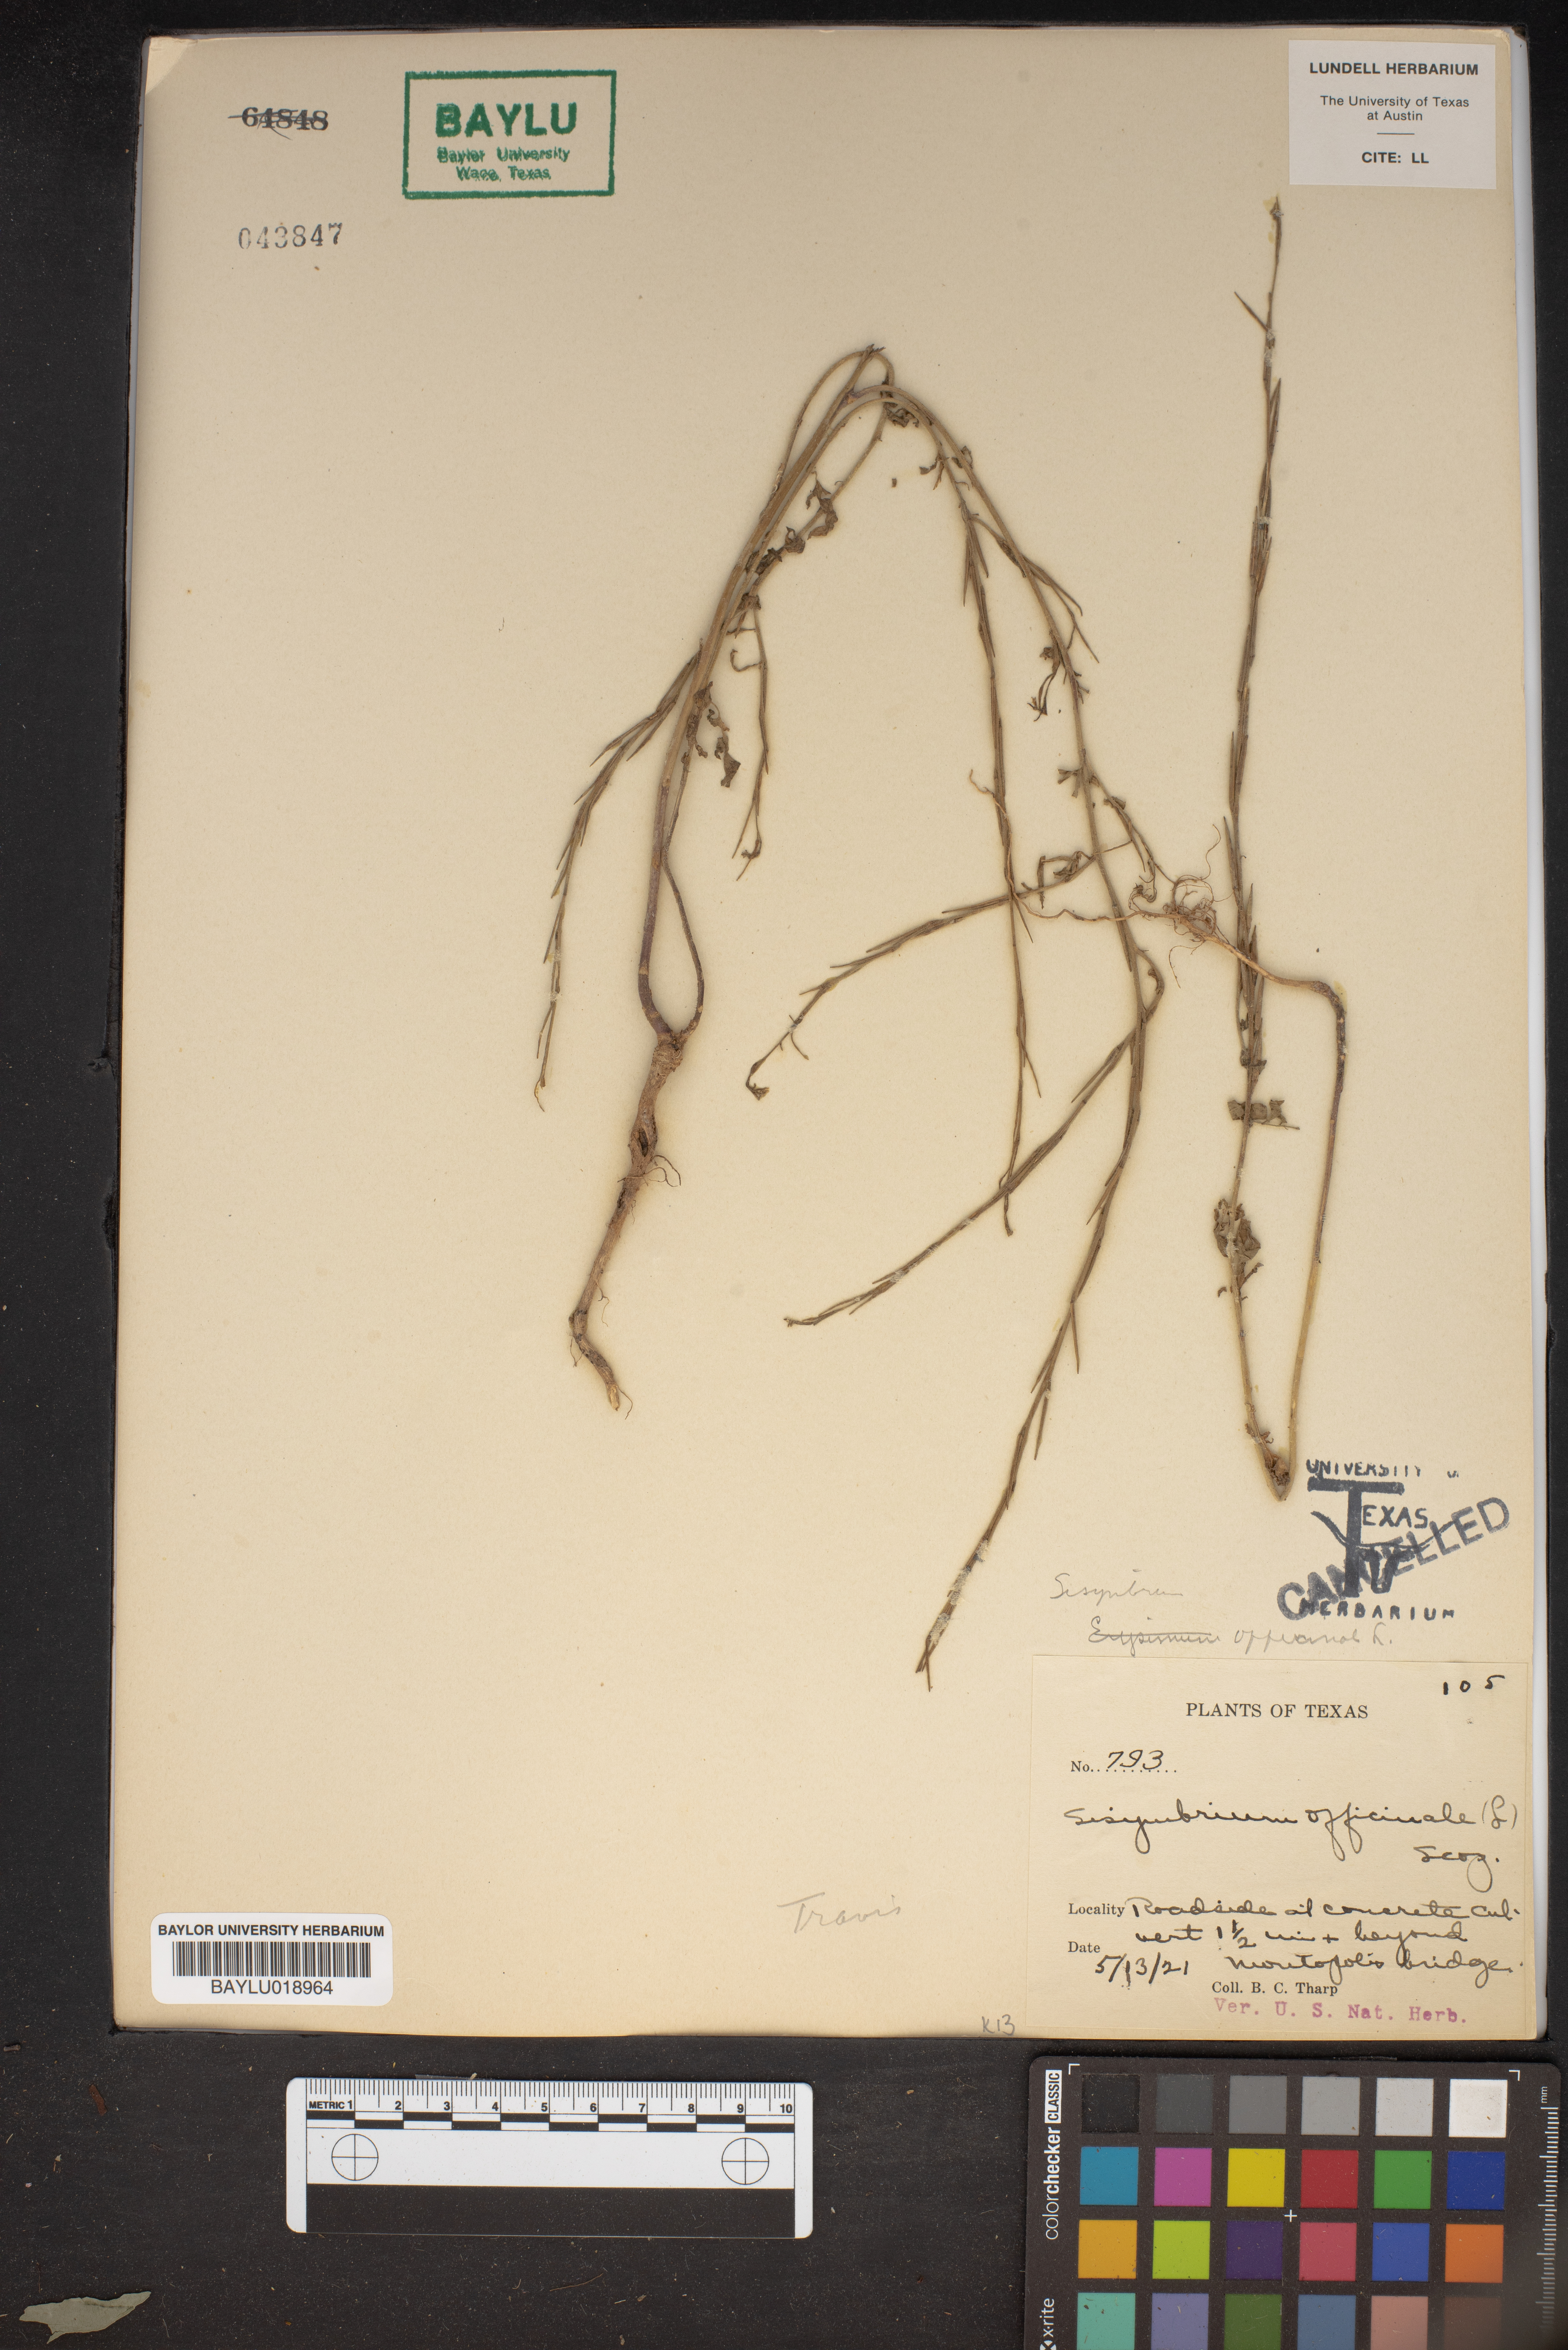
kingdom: Plantae
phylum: Tracheophyta
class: Magnoliopsida
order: Brassicales
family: Brassicaceae
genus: Sisymbrium
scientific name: Sisymbrium officinale
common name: Hedge mustard
